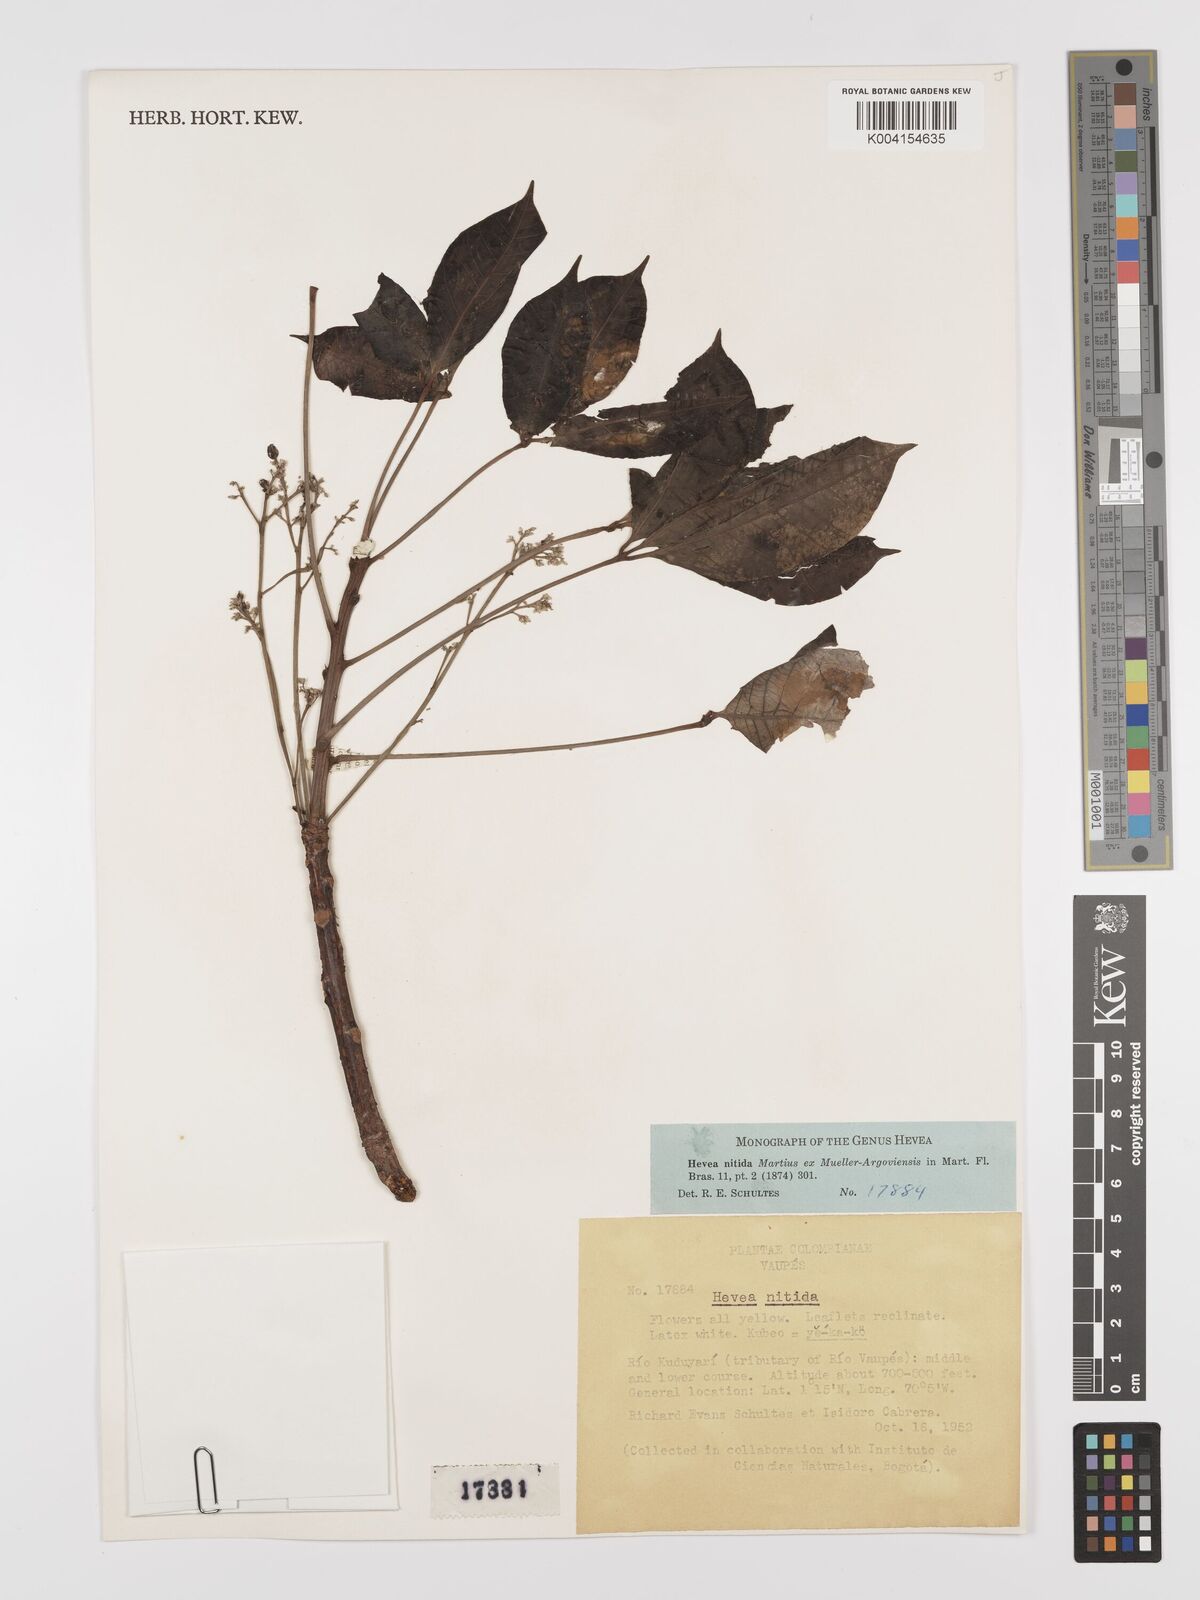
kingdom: Plantae
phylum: Tracheophyta
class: Magnoliopsida
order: Malpighiales
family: Euphorbiaceae
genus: Hevea
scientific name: Hevea nitida
